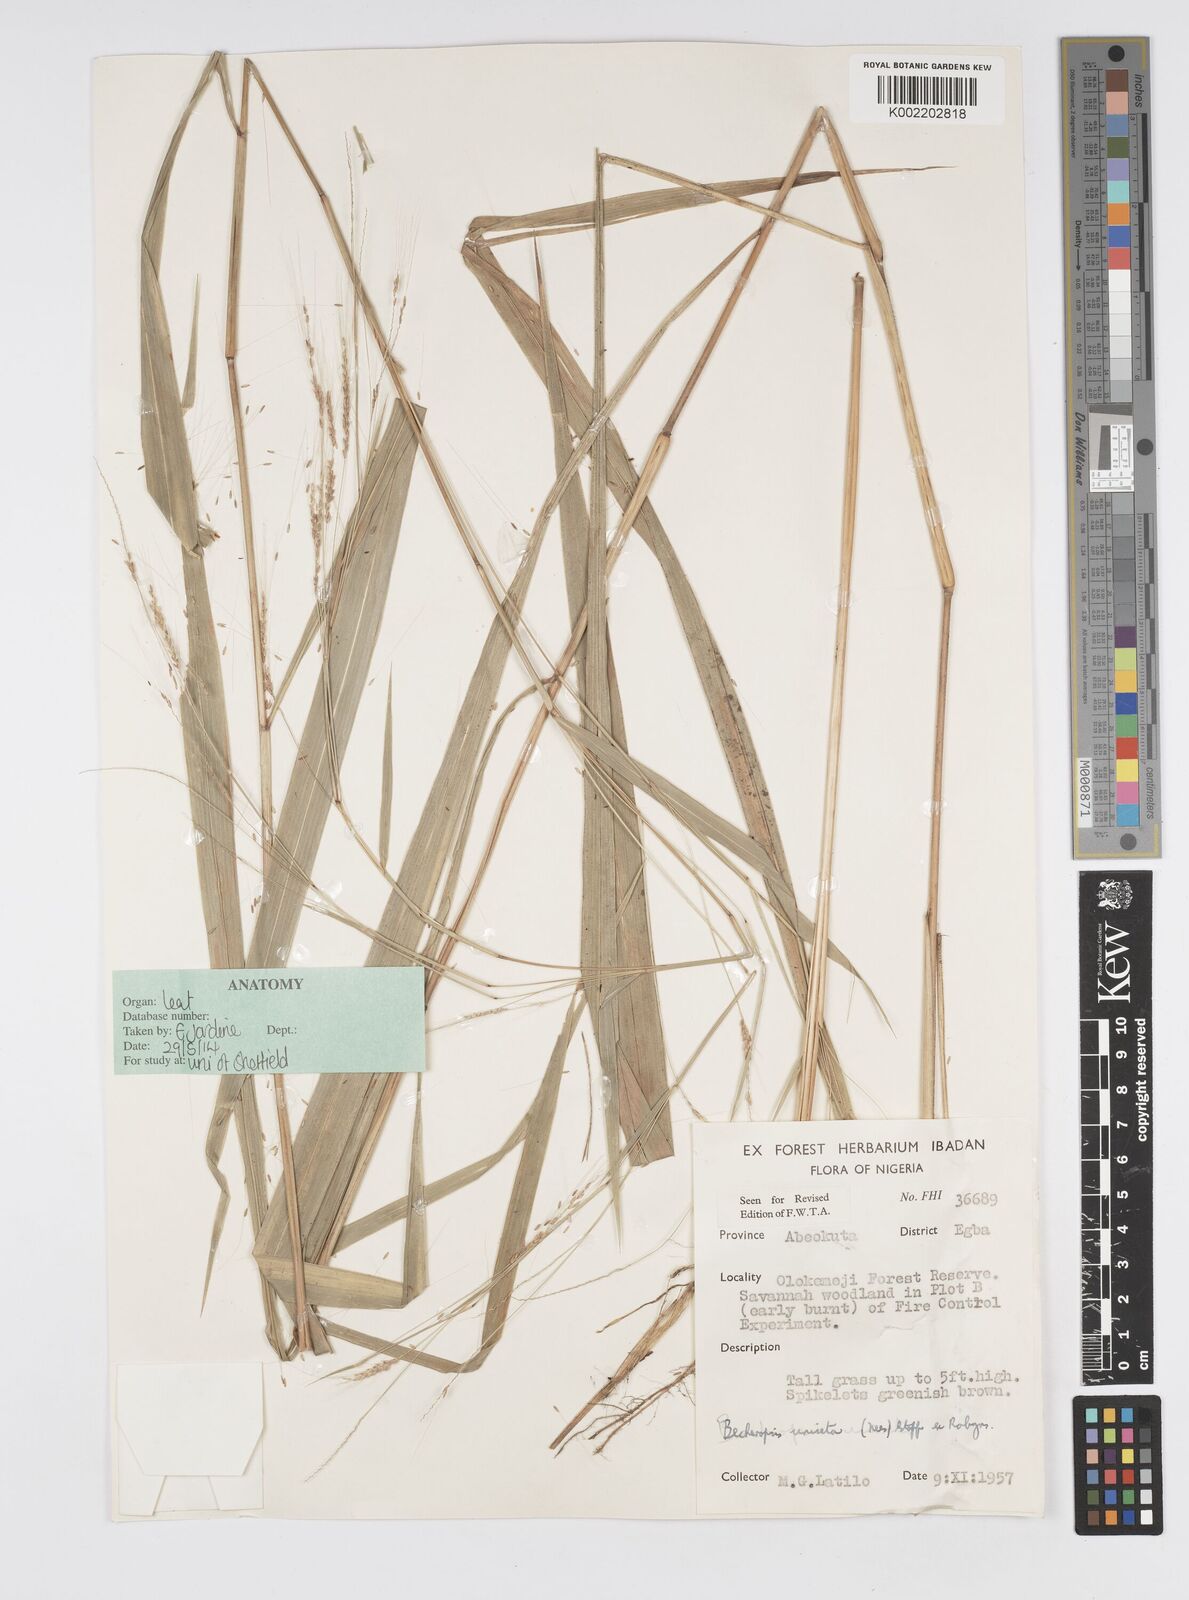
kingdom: Plantae
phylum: Tracheophyta
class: Liliopsida
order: Poales
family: Poaceae
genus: Cenchrus
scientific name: Cenchrus unisetus
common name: Natal grass
